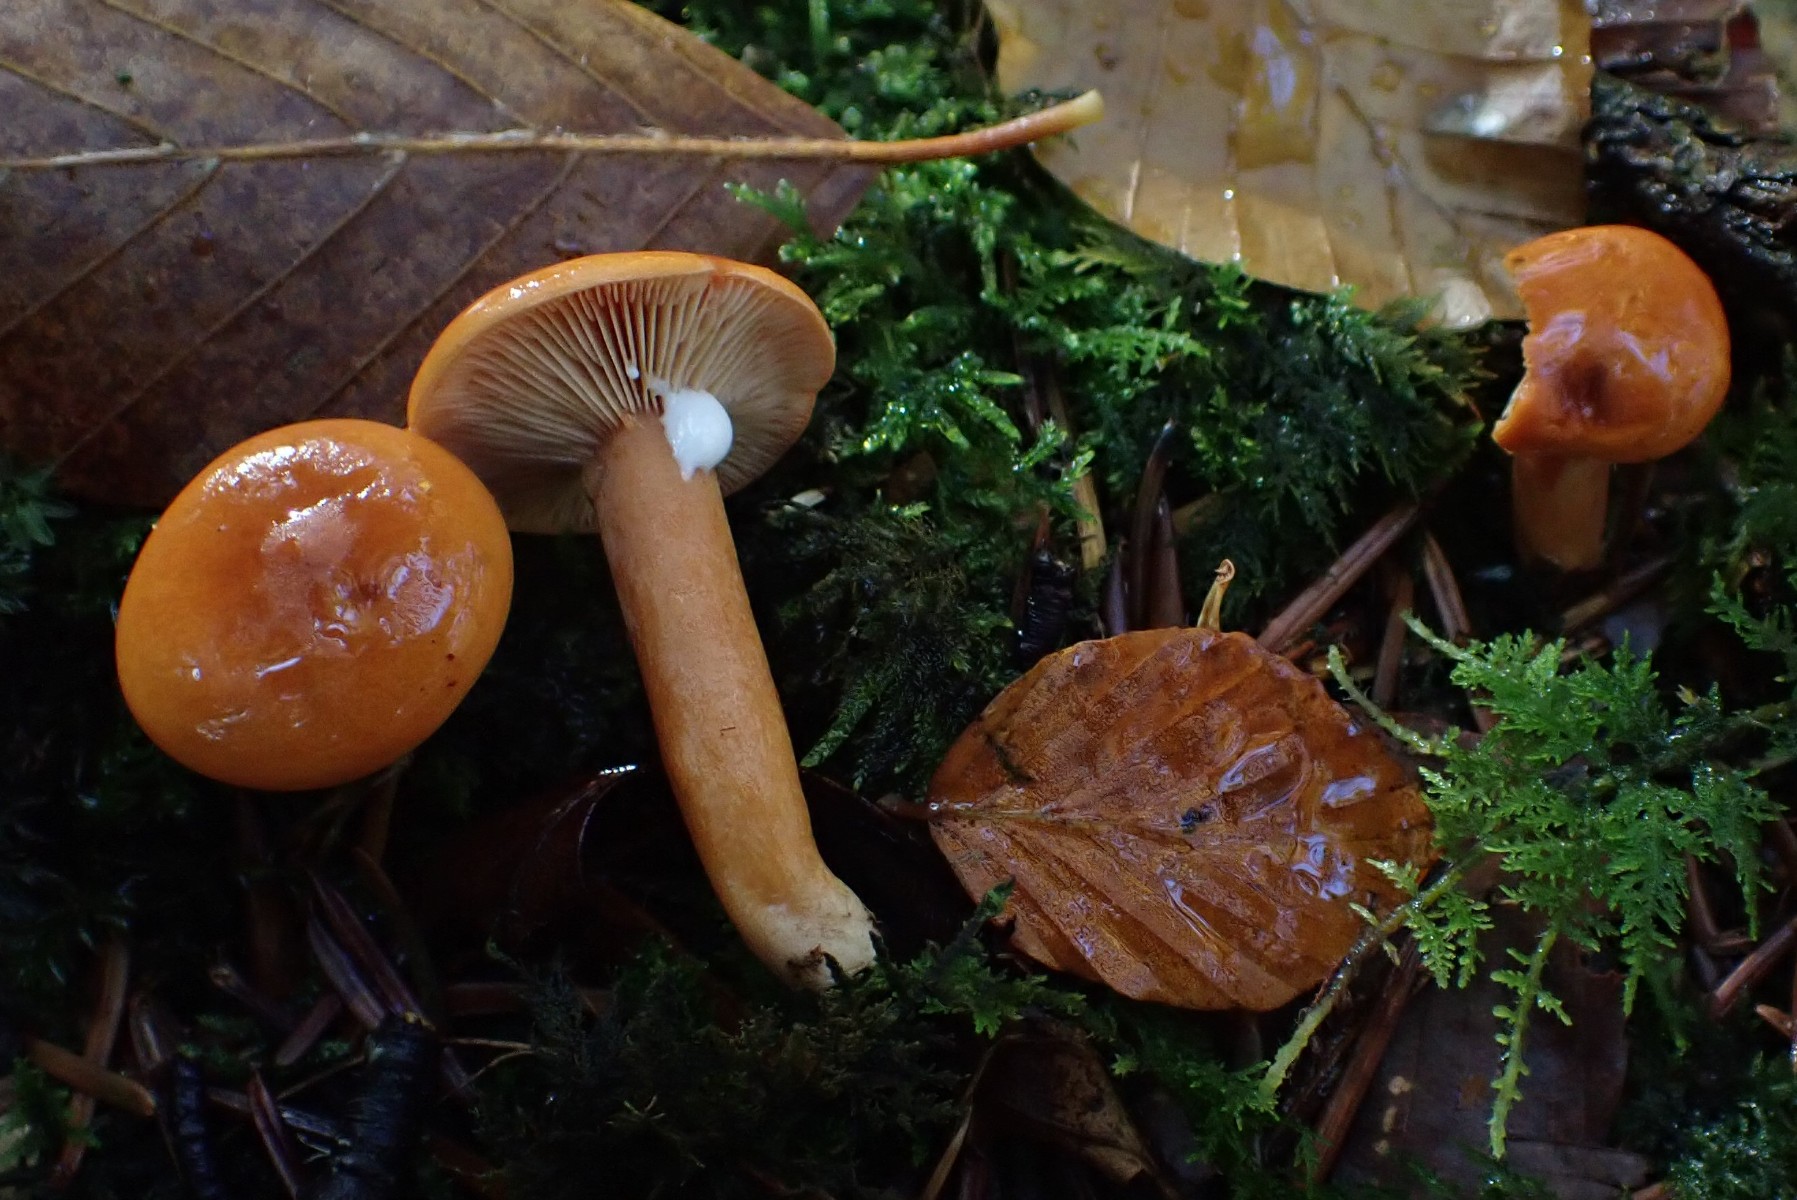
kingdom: Fungi
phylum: Basidiomycota
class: Agaricomycetes
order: Russulales
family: Russulaceae
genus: Lactarius
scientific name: Lactarius aurantiacus
